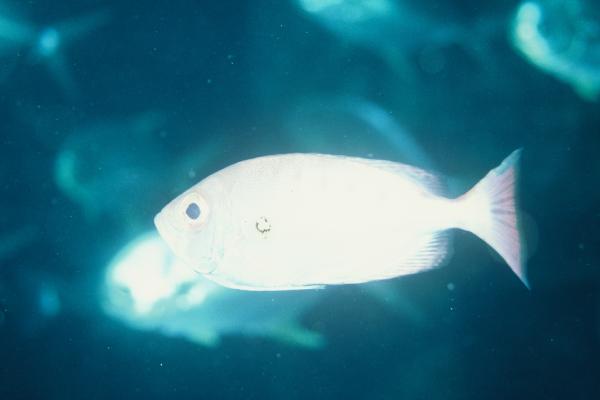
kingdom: Animalia
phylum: Chordata
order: Perciformes
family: Priacanthidae
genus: Priacanthus
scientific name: Priacanthus
